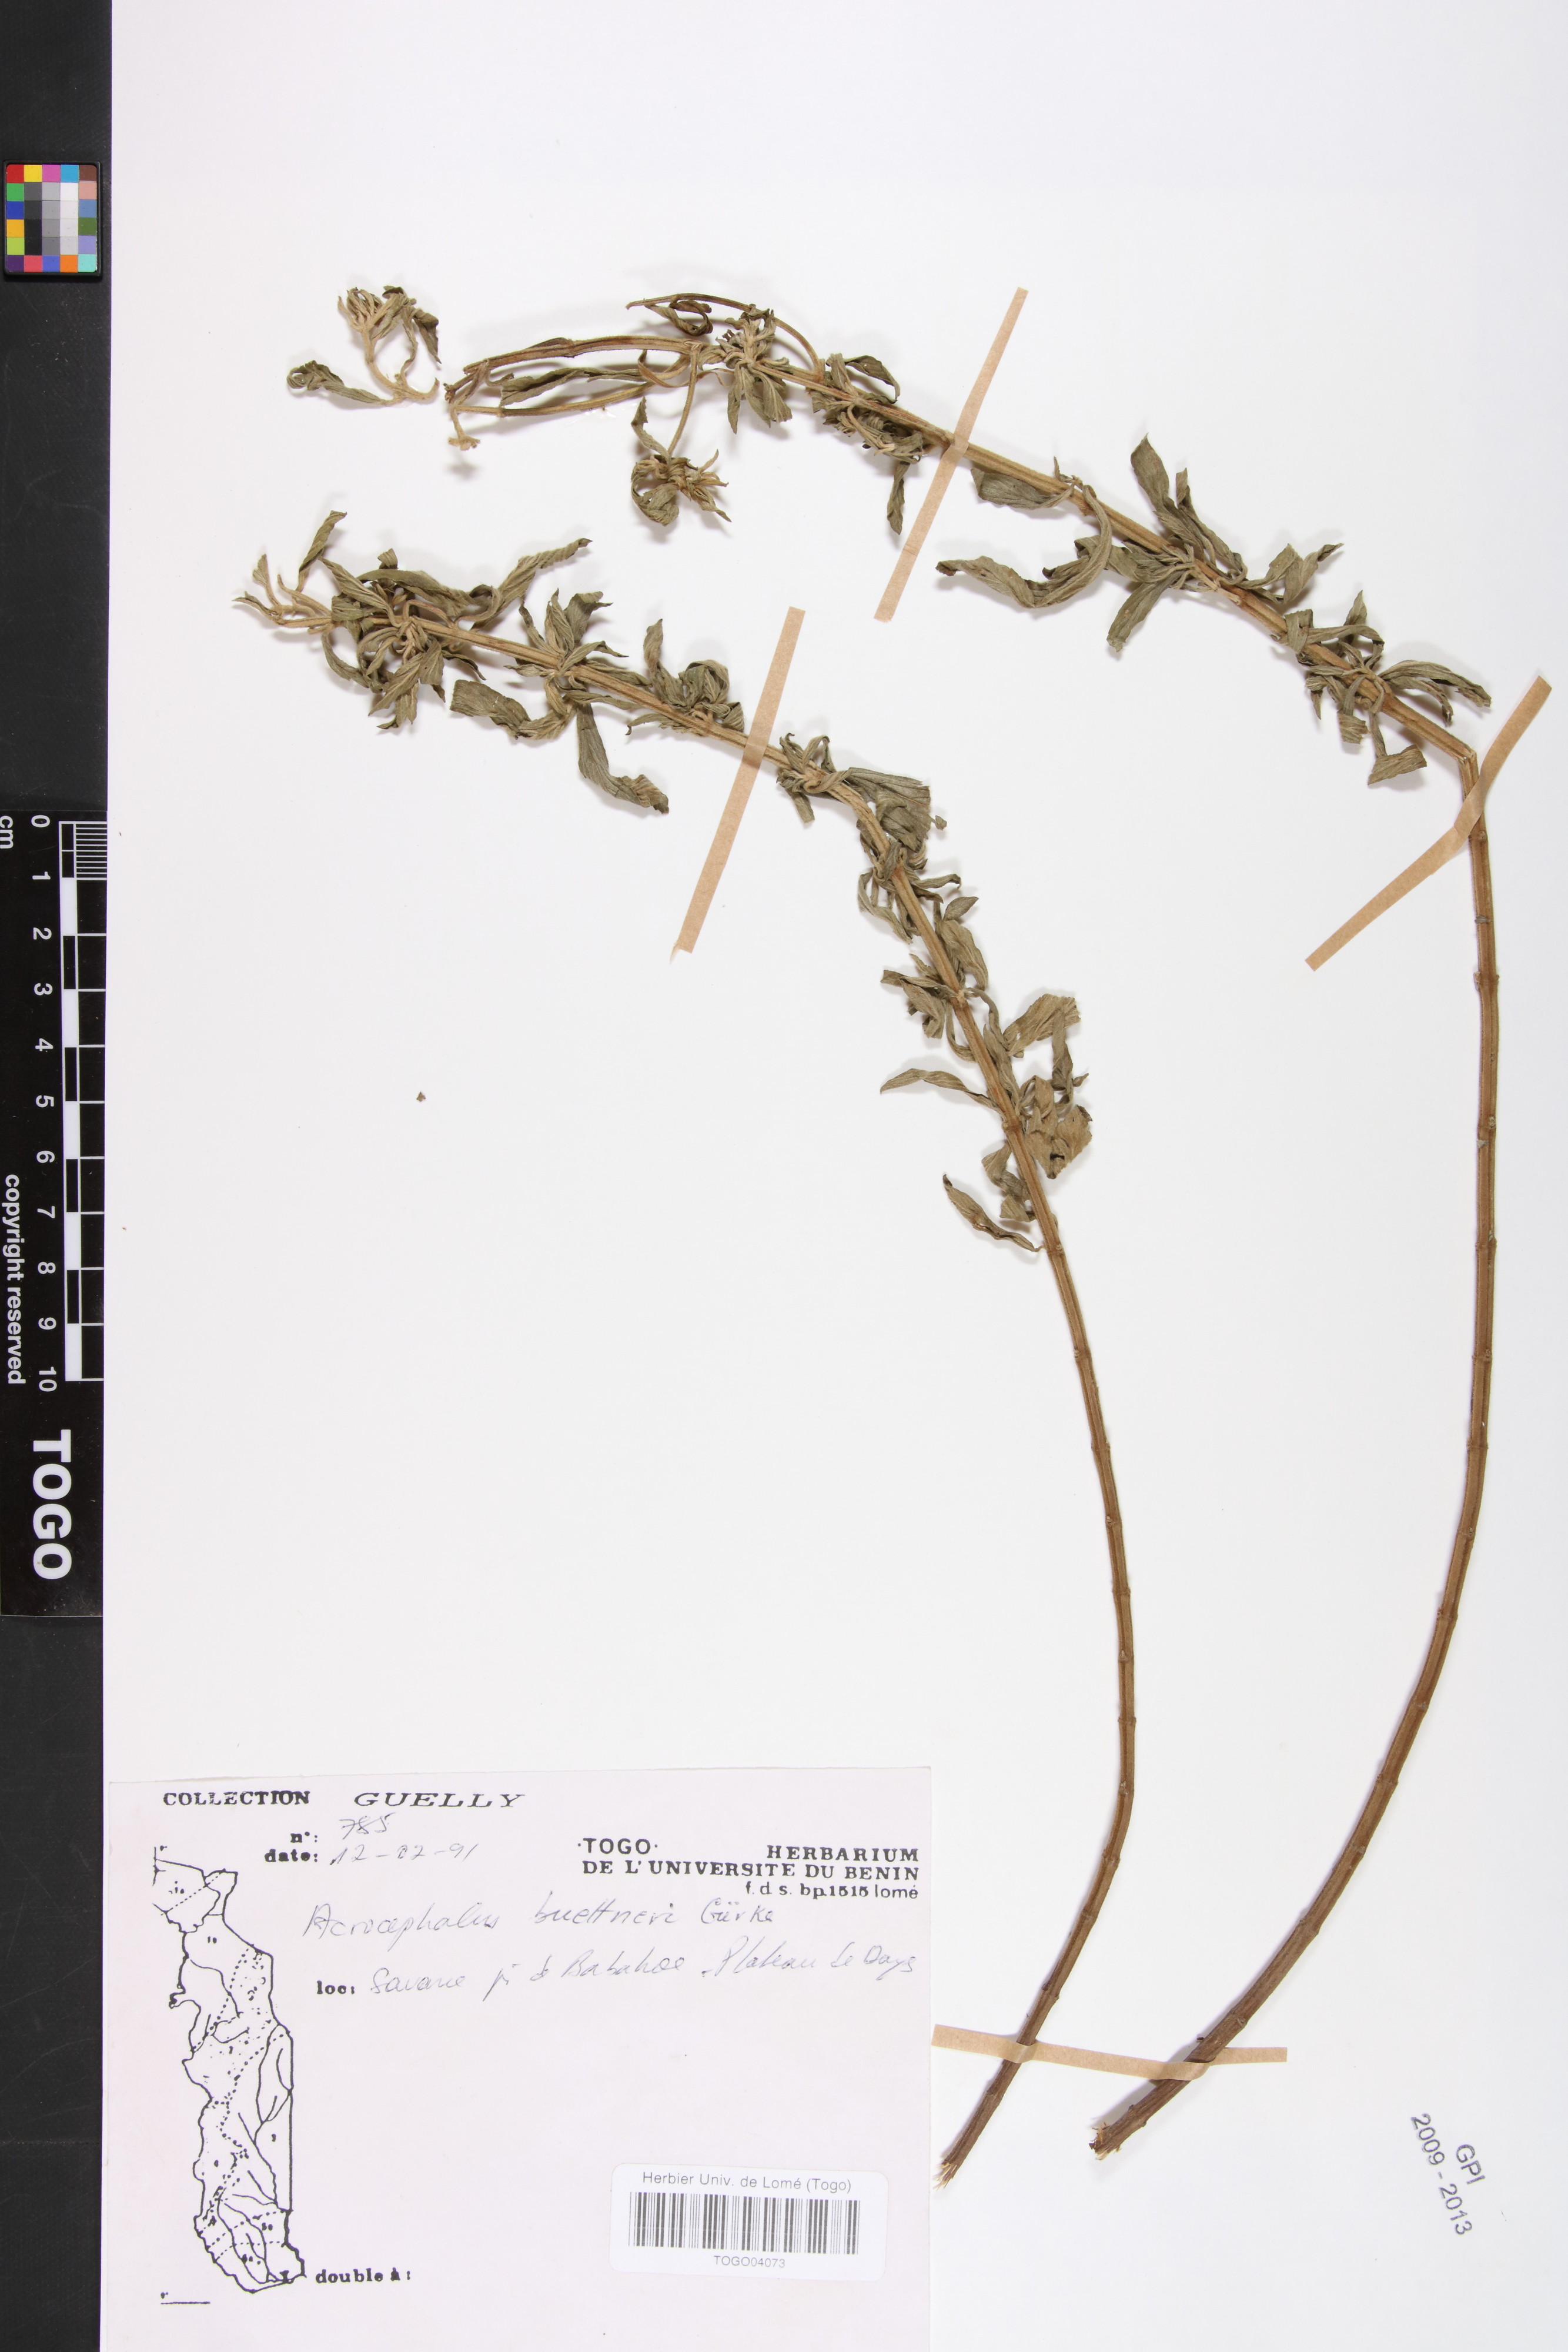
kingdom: Plantae
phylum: Tracheophyta
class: Magnoliopsida
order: Lamiales
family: Lamiaceae
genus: Haumaniastrum
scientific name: Haumaniastrum buettneri
